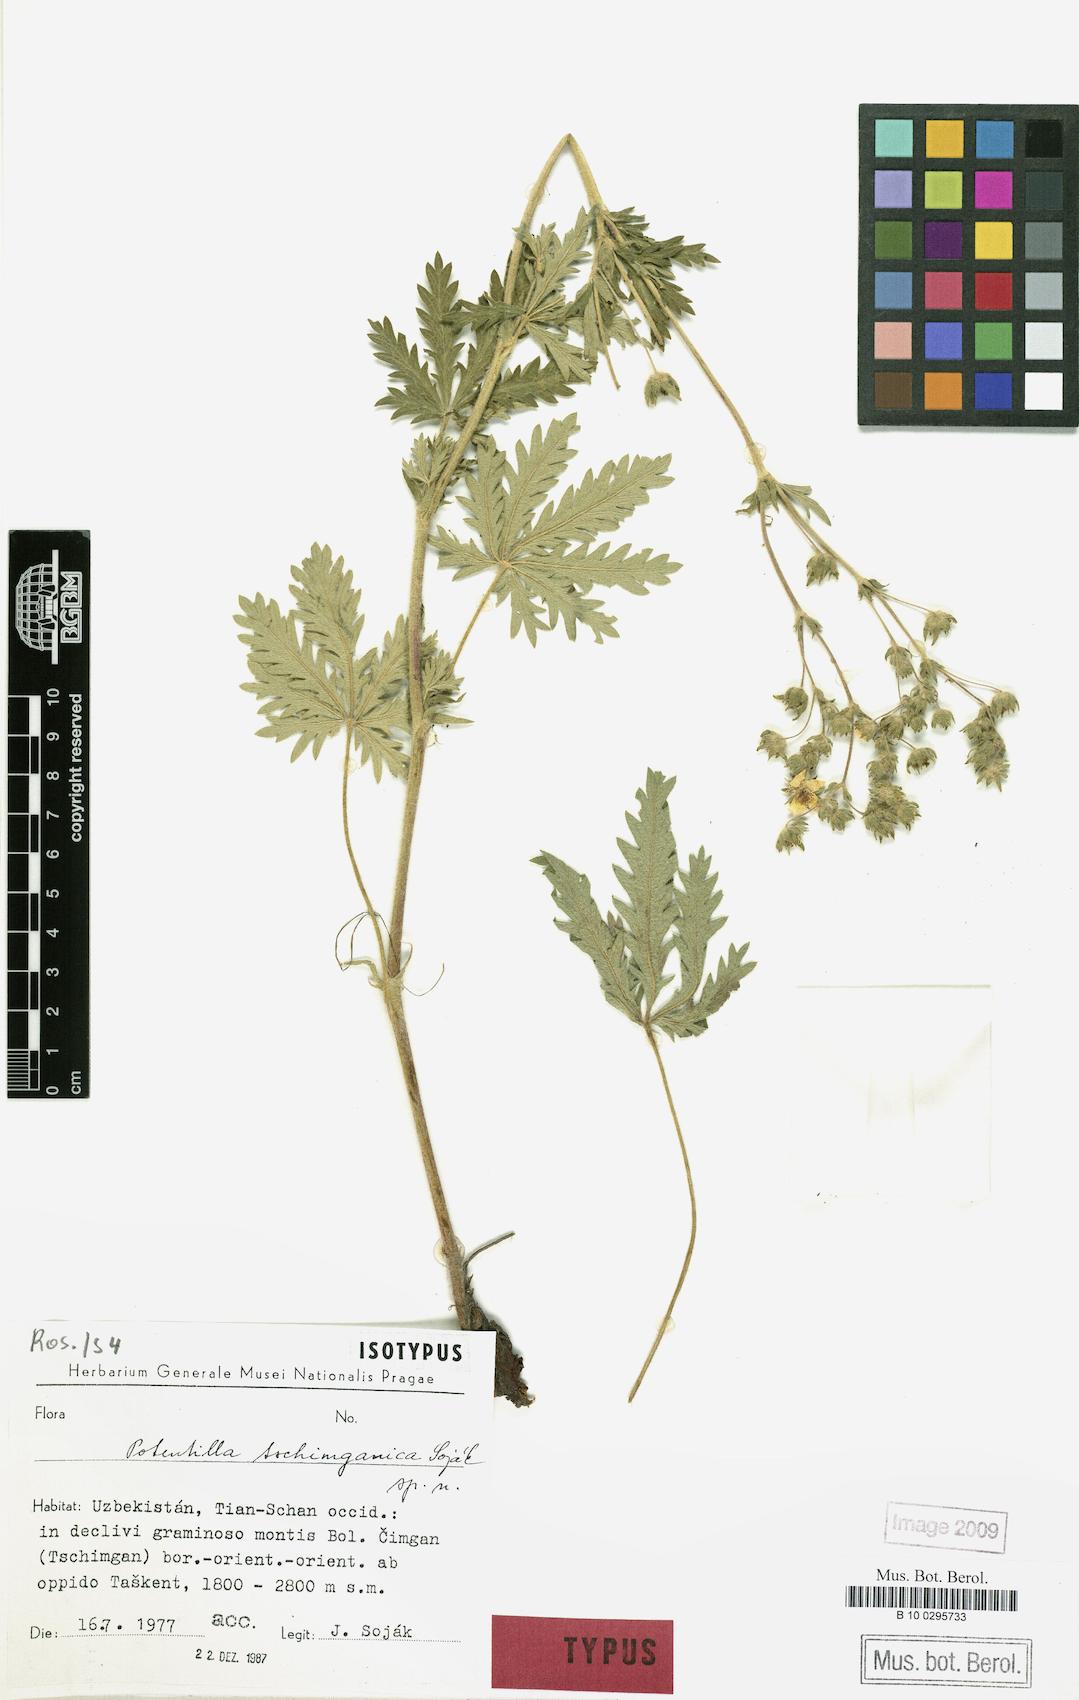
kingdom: Plantae
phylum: Tracheophyta
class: Magnoliopsida
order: Rosales
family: Rosaceae
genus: Potentilla
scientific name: Potentilla tschimganica
